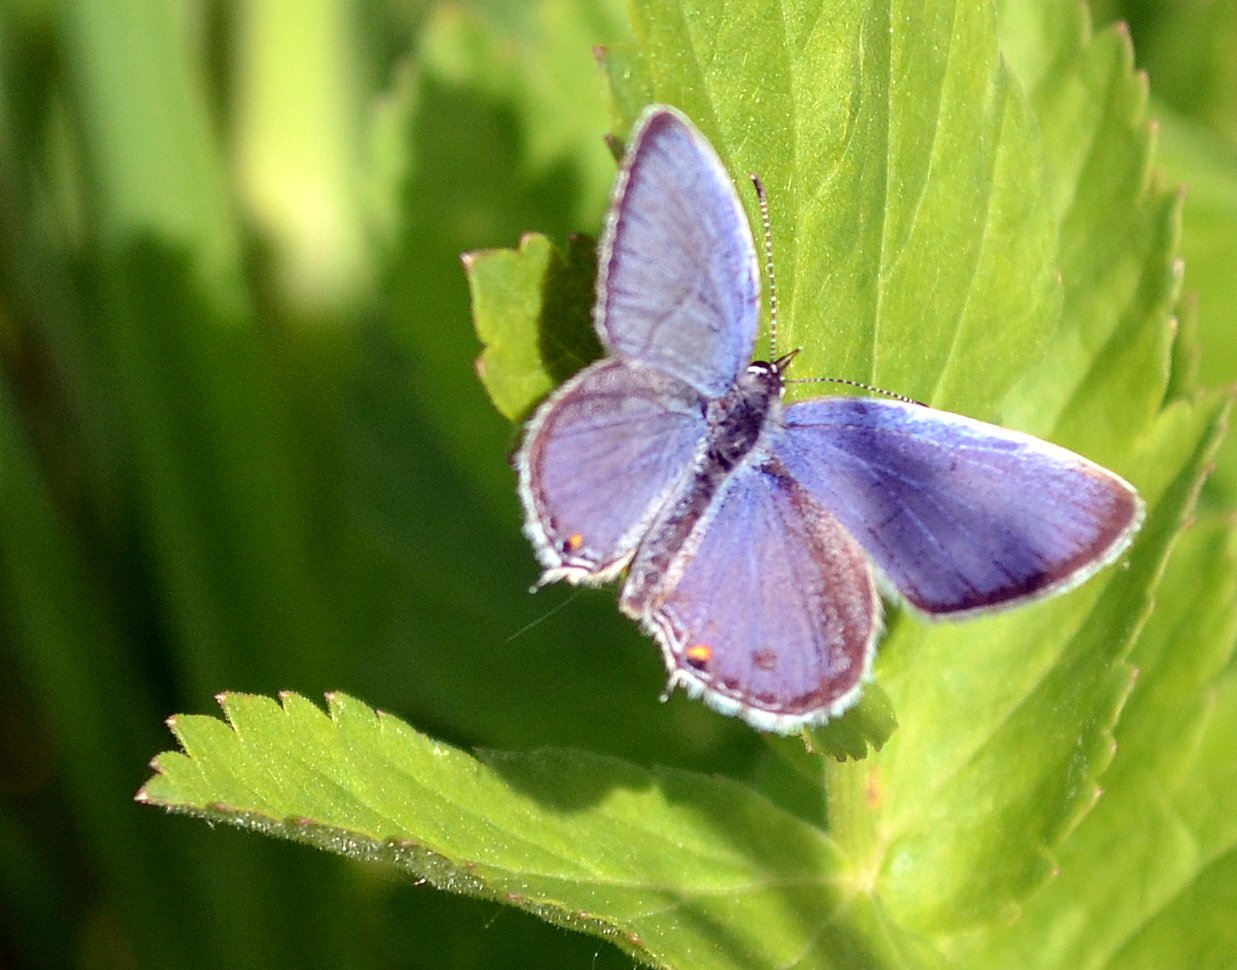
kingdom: Animalia
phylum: Arthropoda
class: Insecta
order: Lepidoptera
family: Lycaenidae
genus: Elkalyce
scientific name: Elkalyce comyntas
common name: Eastern Tailed-Blue
